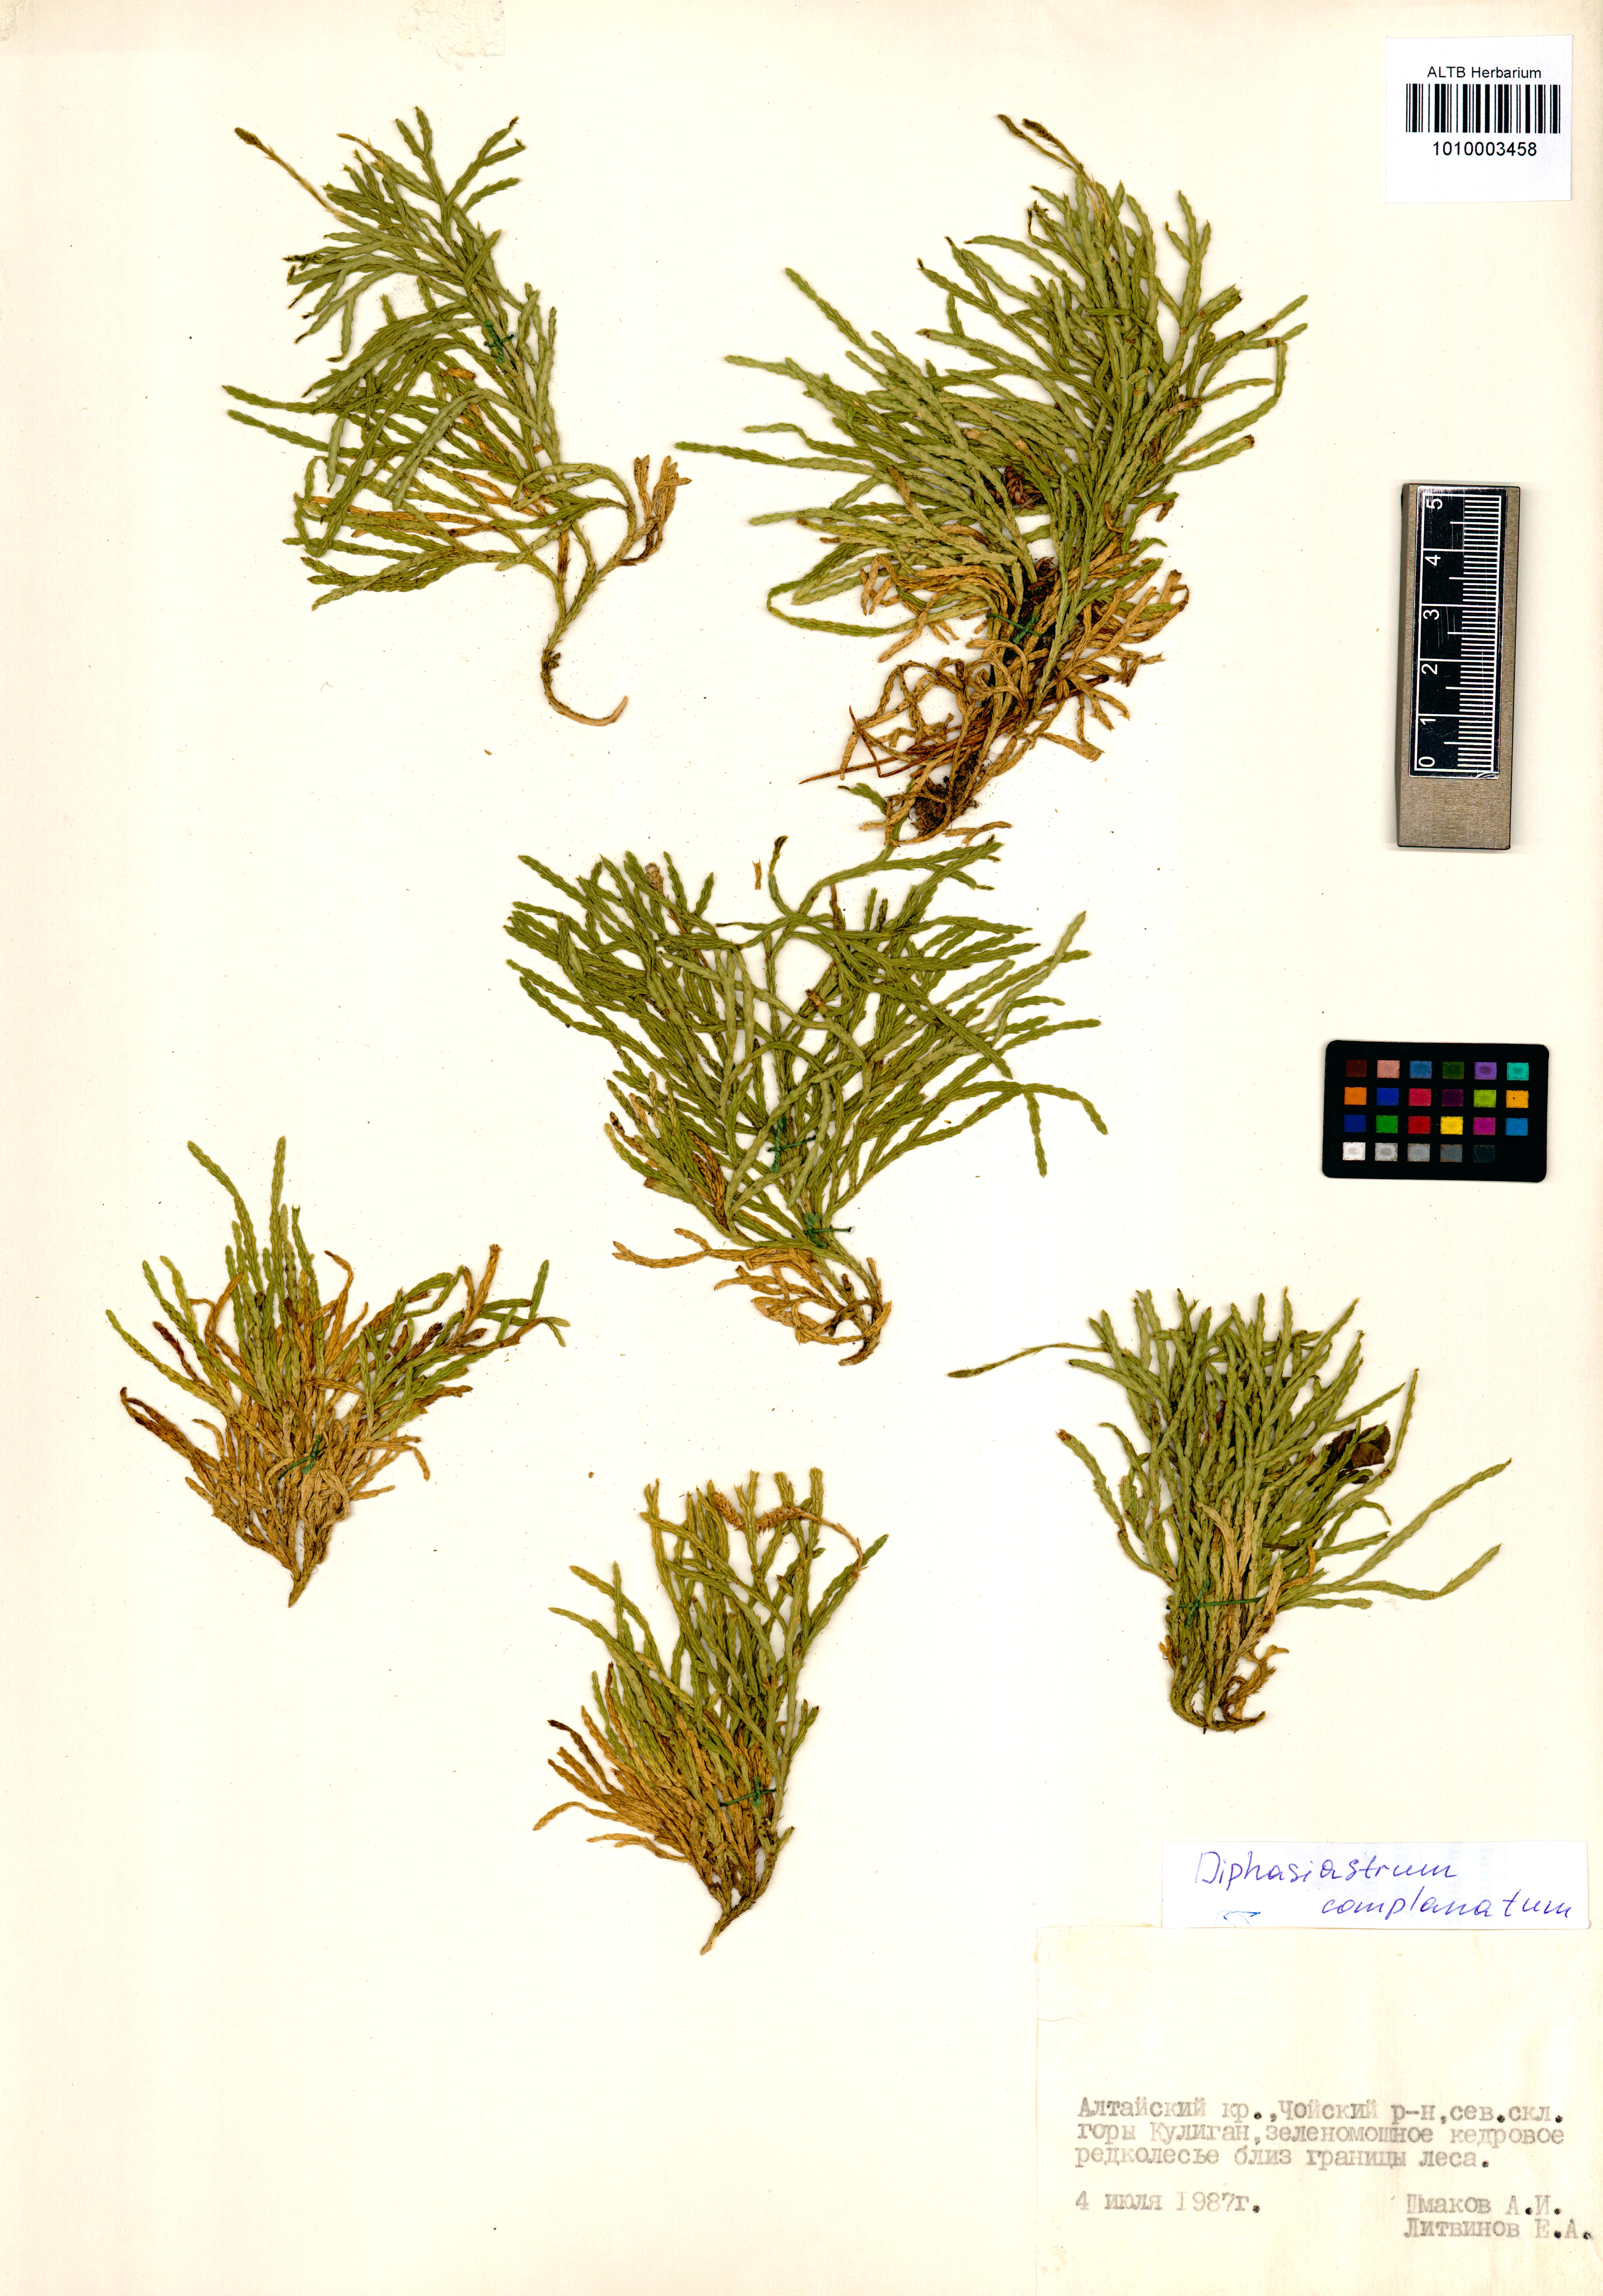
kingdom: Plantae
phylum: Tracheophyta
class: Lycopodiopsida
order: Lycopodiales
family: Lycopodiaceae
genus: Diphasiastrum
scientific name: Diphasiastrum complanatum
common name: Northern running-pine
